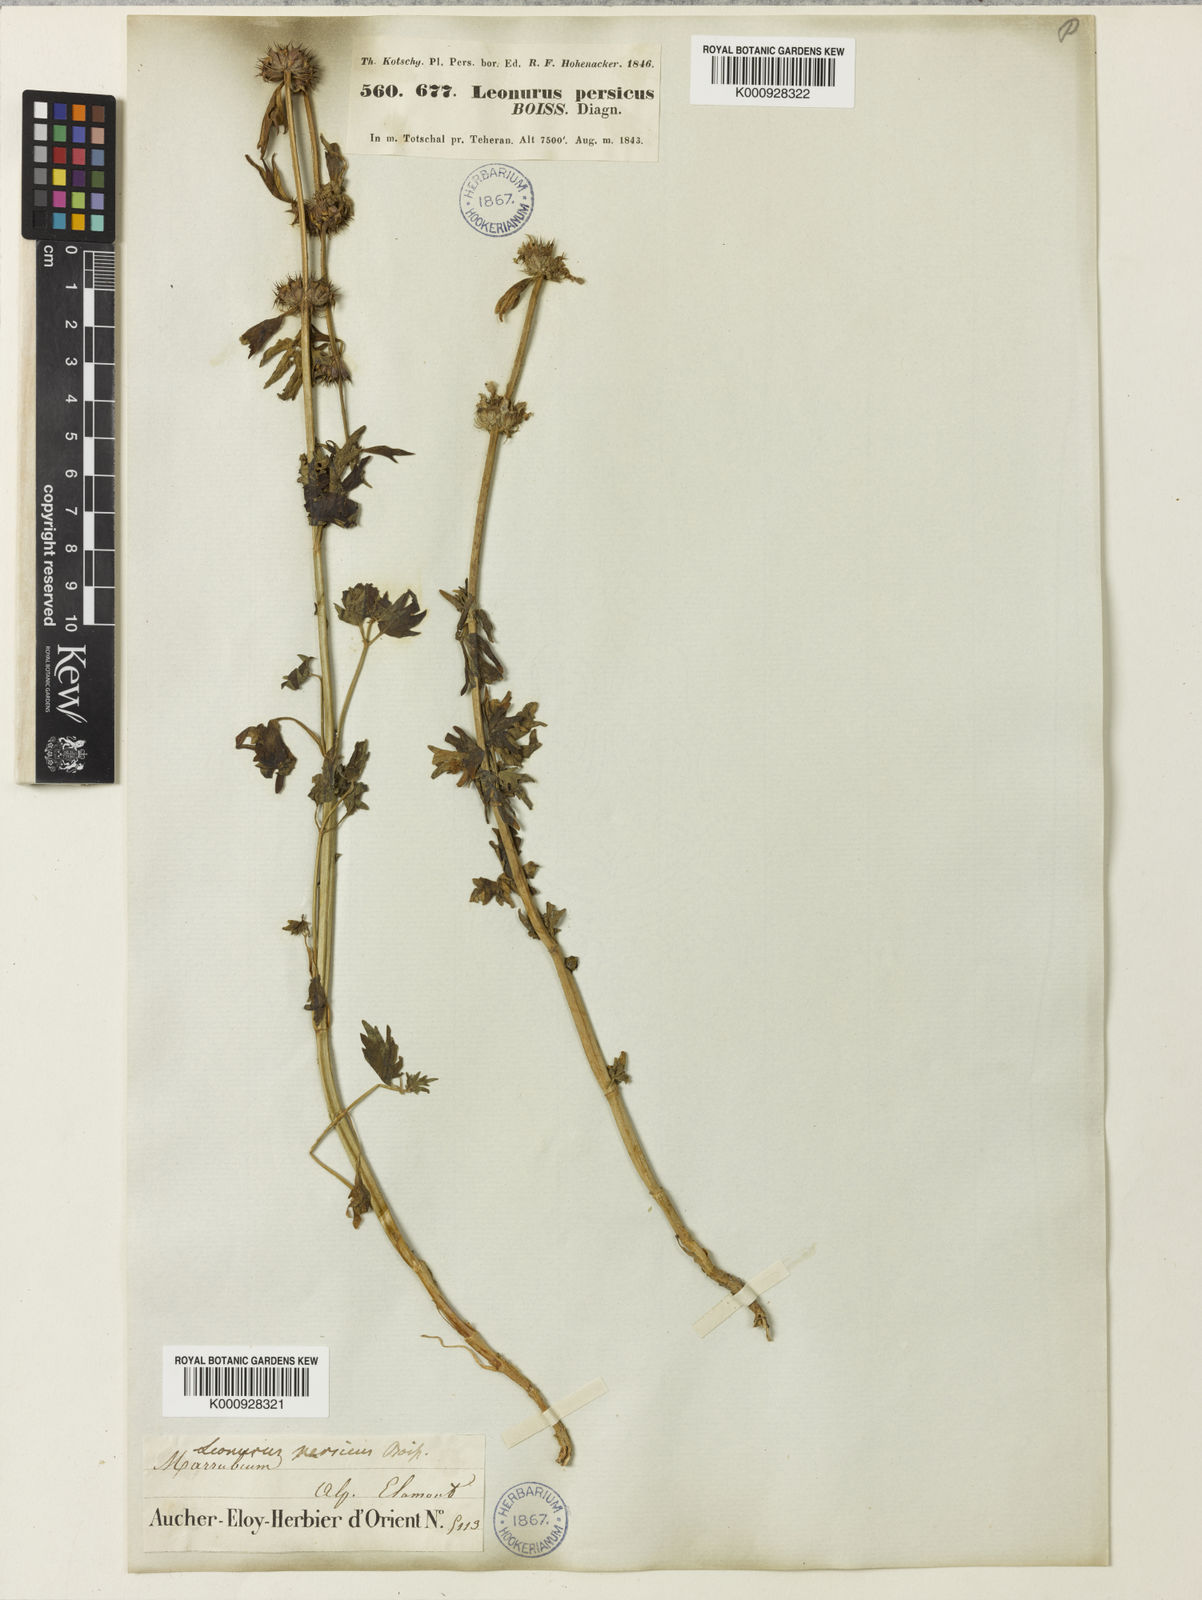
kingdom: Plantae
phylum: Tracheophyta
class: Magnoliopsida
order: Lamiales
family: Lamiaceae
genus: Leonurus
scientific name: Leonurus persicus
